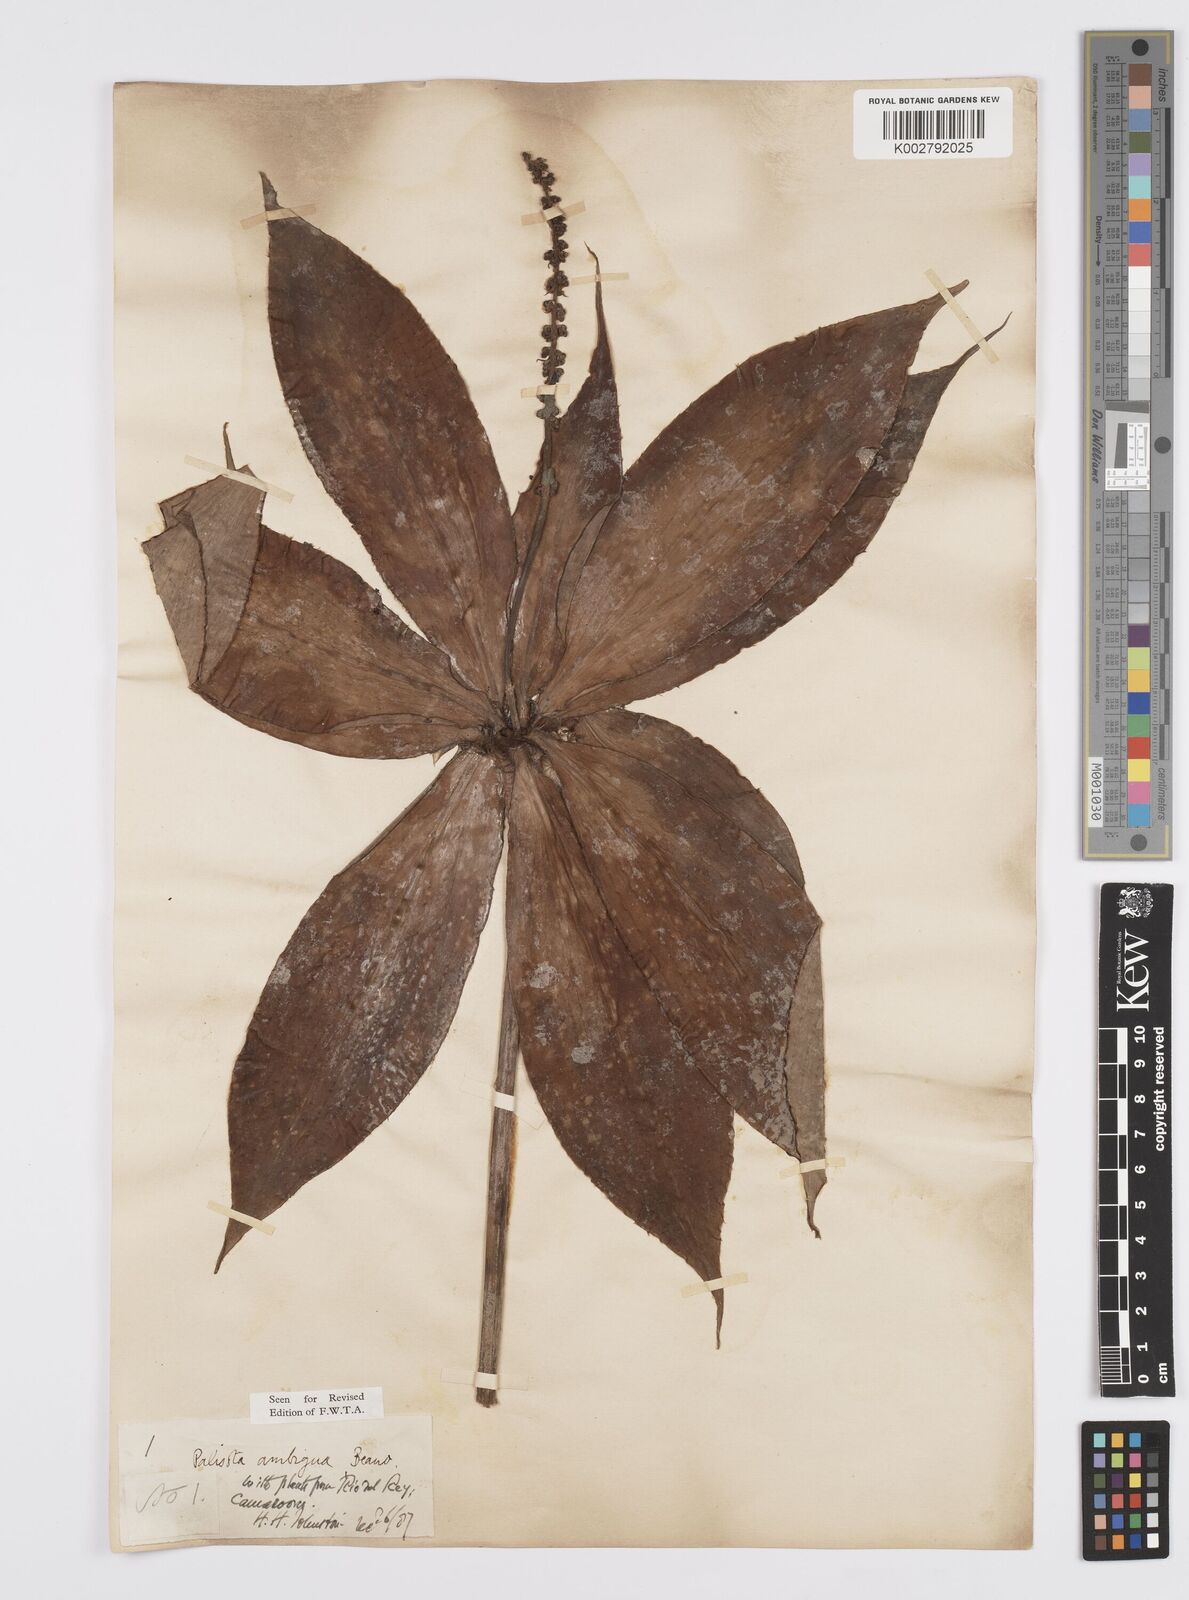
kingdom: Plantae
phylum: Tracheophyta
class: Liliopsida
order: Commelinales
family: Commelinaceae
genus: Palisota
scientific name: Palisota ambigua
